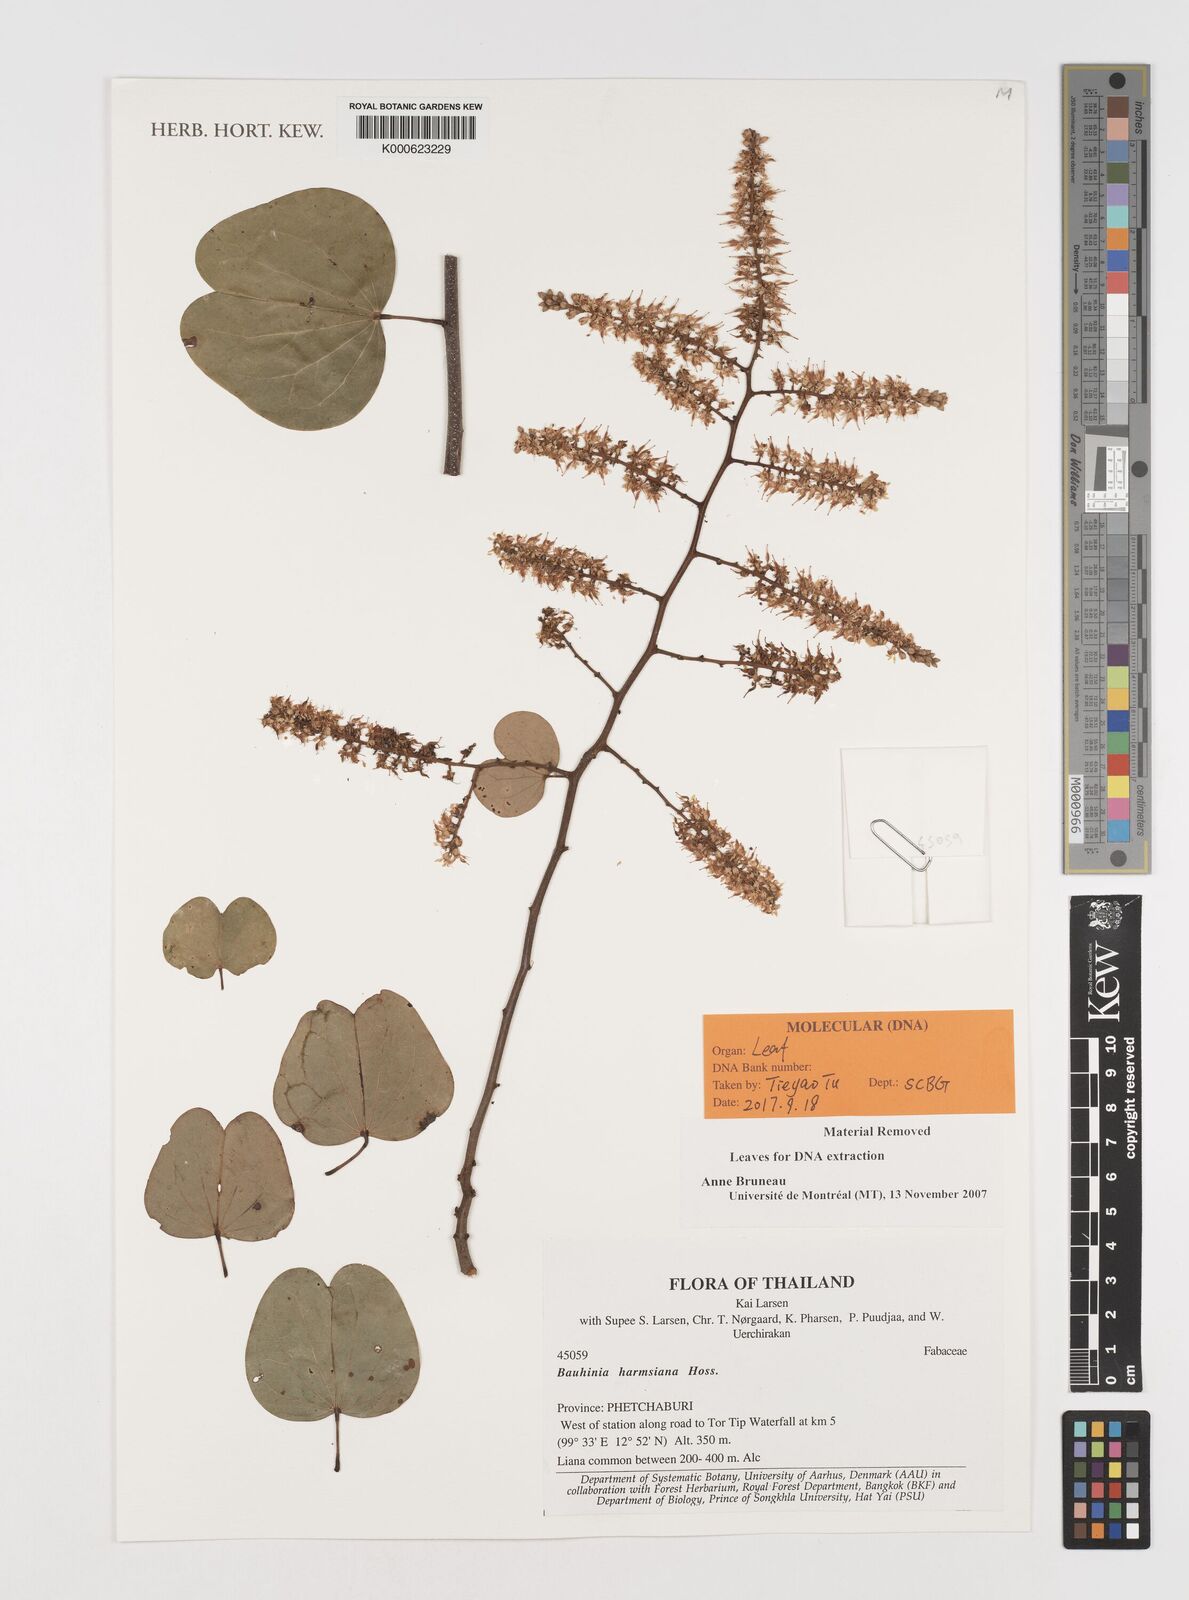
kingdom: Plantae
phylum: Tracheophyta
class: Magnoliopsida
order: Fabales
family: Fabaceae
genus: Phanera
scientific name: Phanera harmsiana
